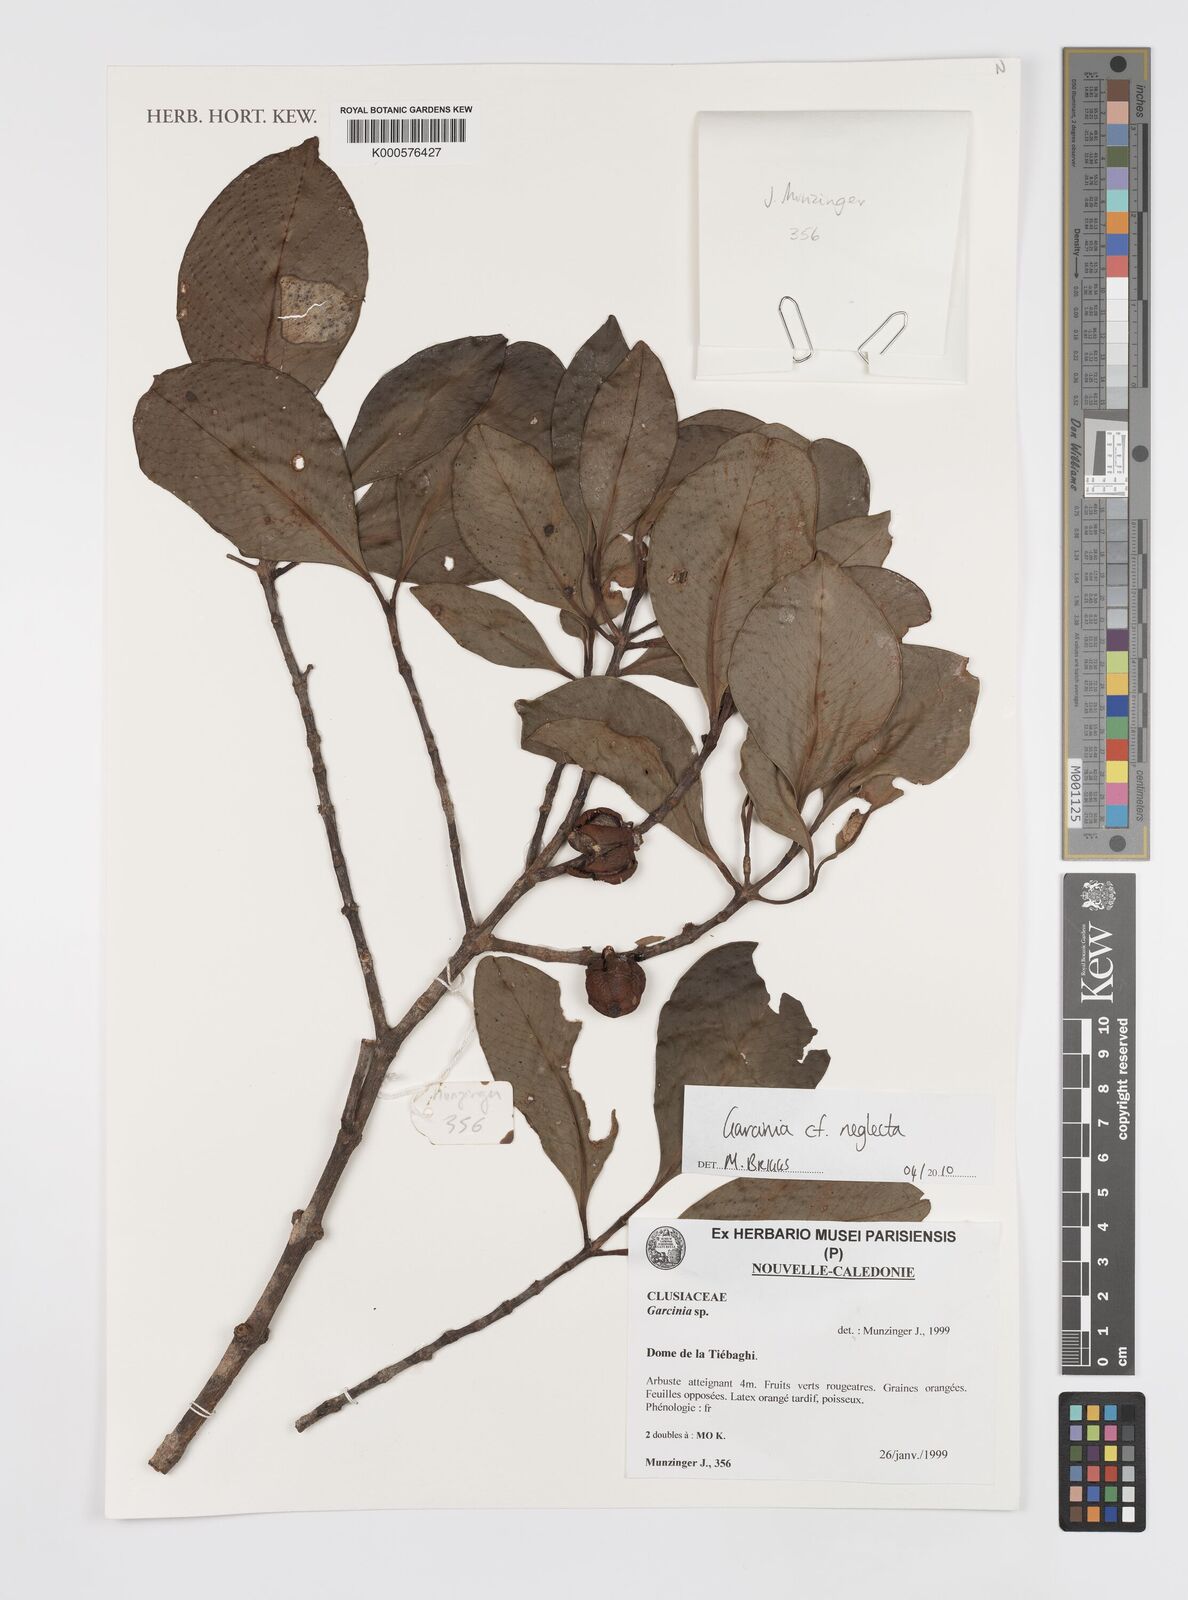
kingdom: Plantae
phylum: Tracheophyta
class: Magnoliopsida
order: Malpighiales
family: Clusiaceae
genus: Garcinia
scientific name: Garcinia corallina
